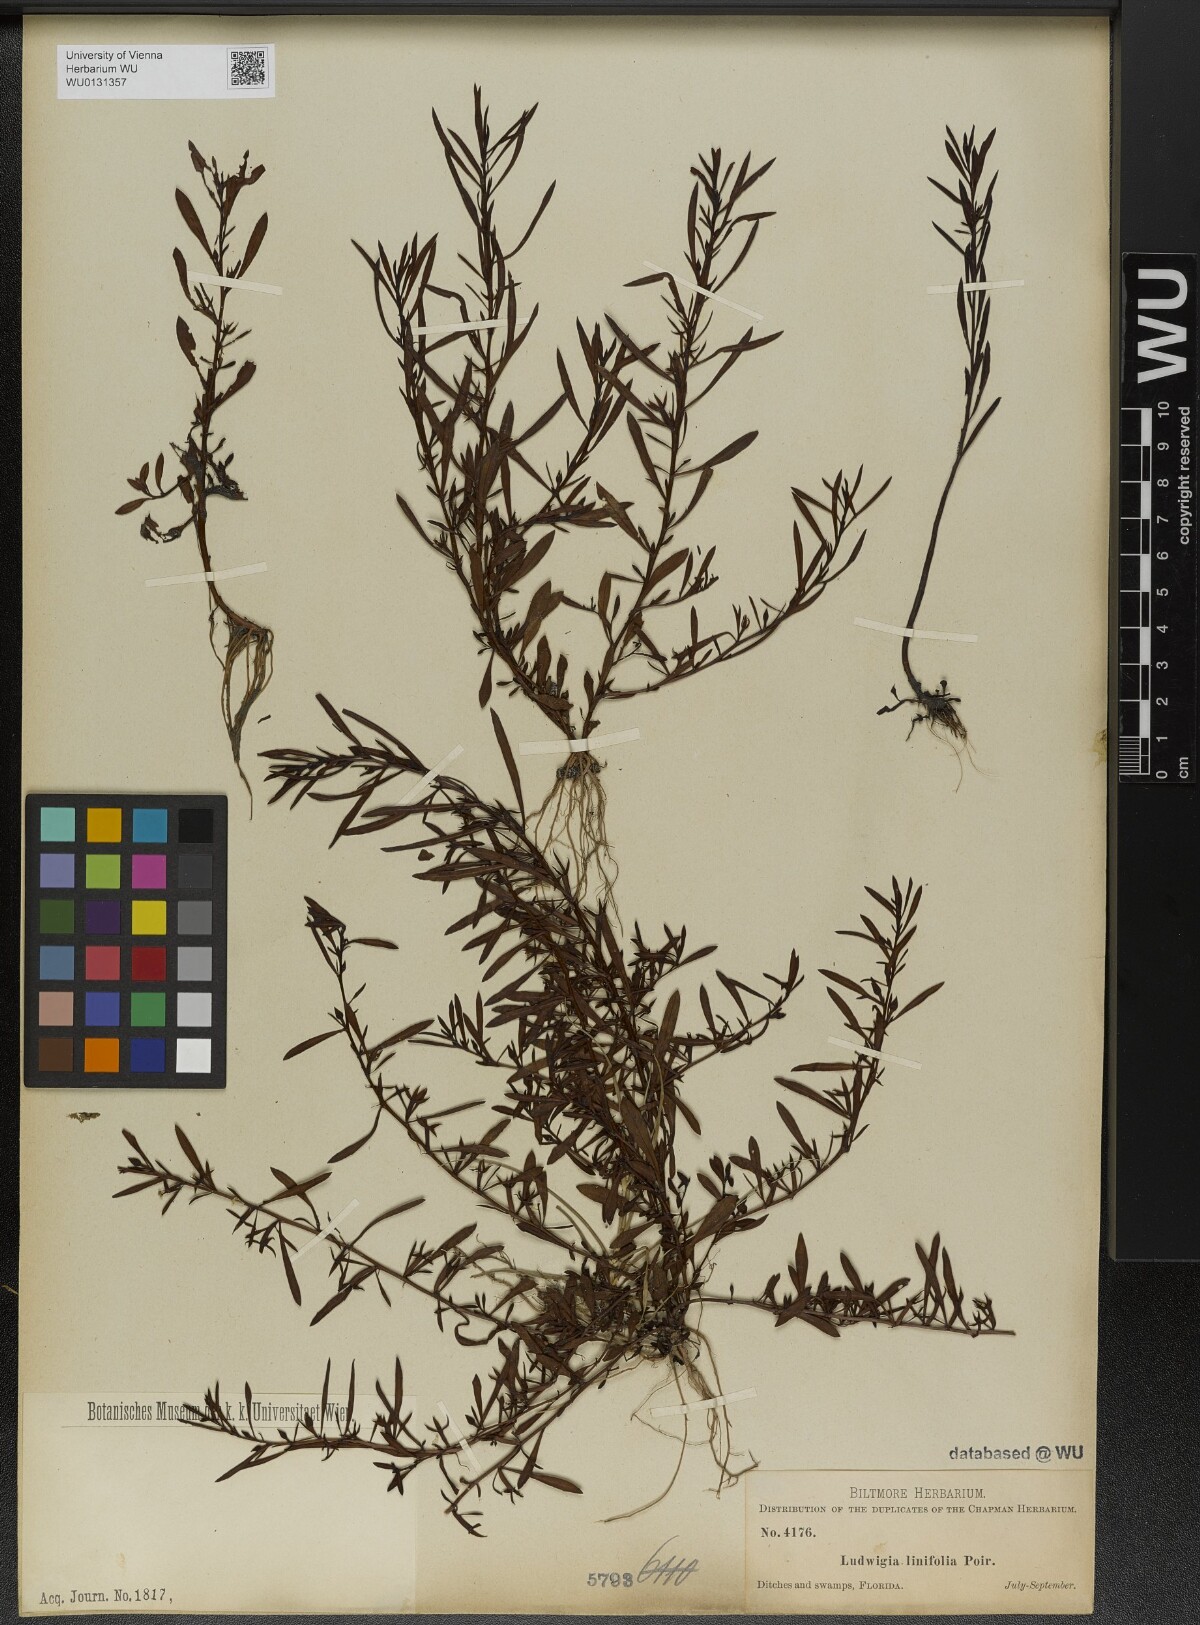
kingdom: Plantae
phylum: Tracheophyta
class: Magnoliopsida
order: Myrtales
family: Onagraceae
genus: Ludwigia
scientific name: Ludwigia linifolia
